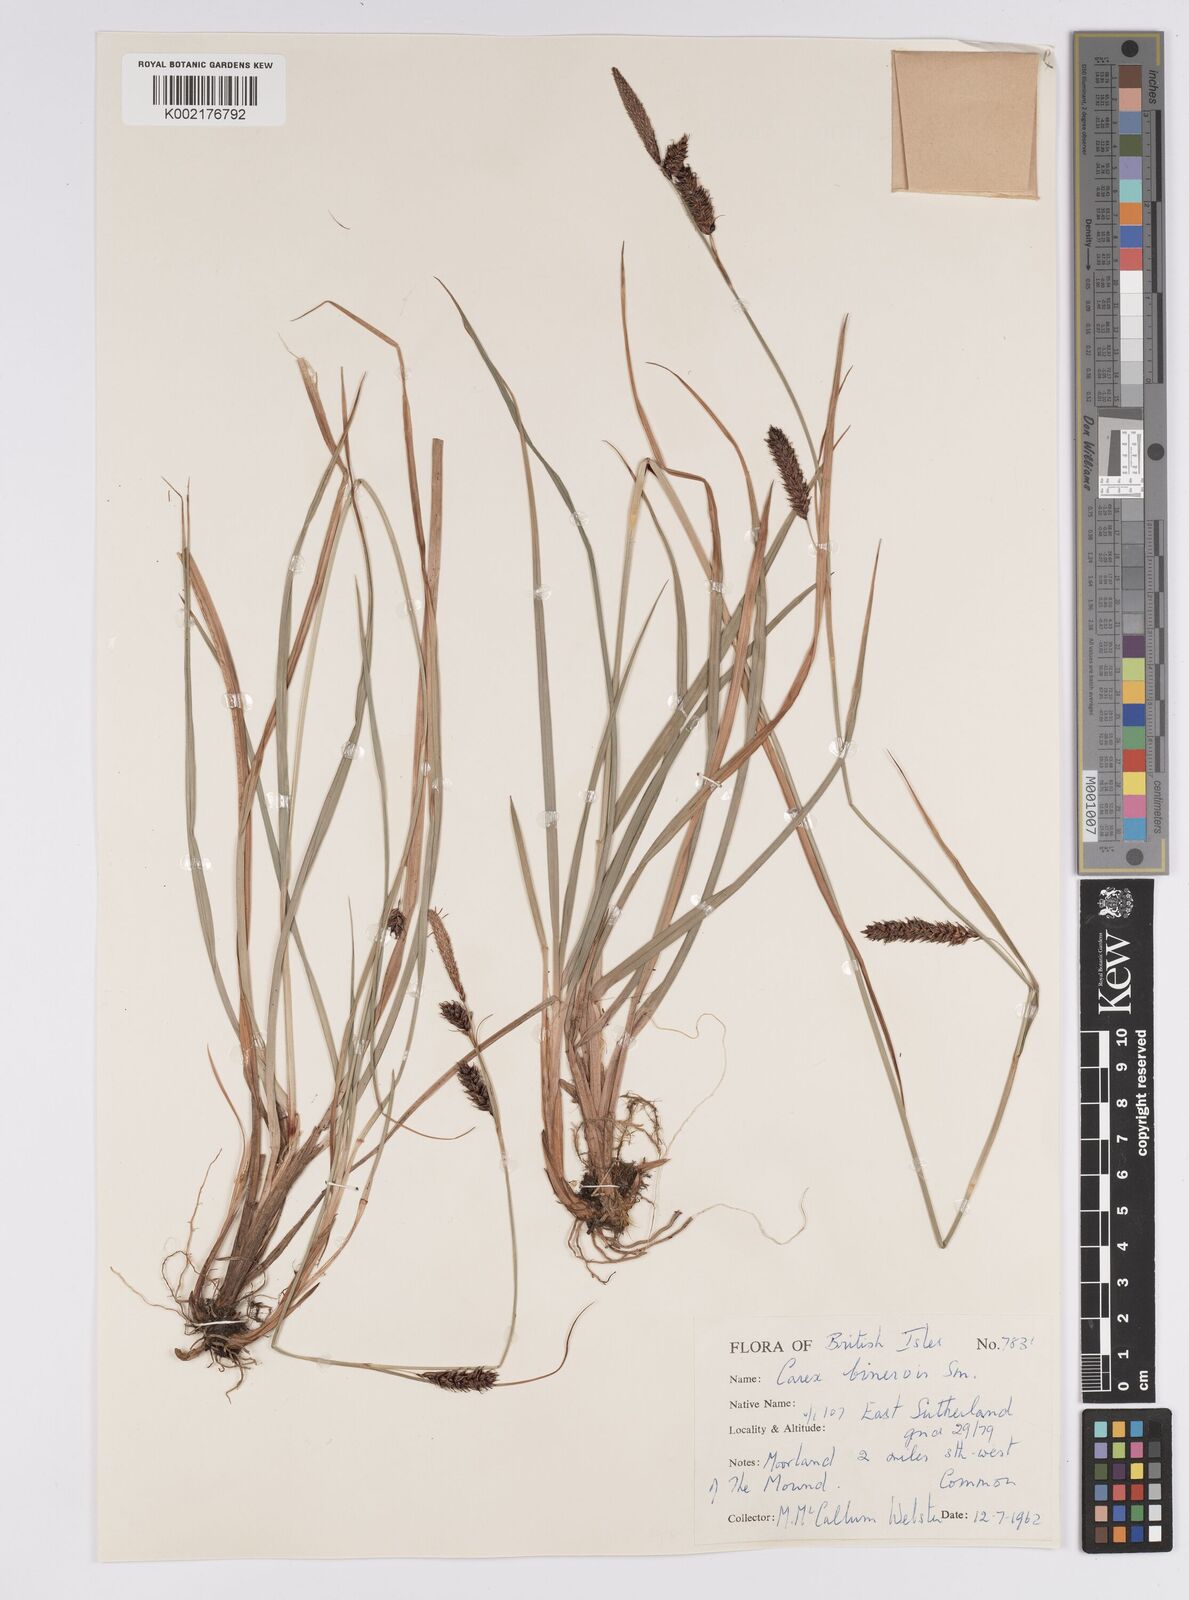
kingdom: Plantae
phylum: Tracheophyta
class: Liliopsida
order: Poales
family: Cyperaceae
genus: Carex
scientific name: Carex binervis
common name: Green-ribbed sedge
